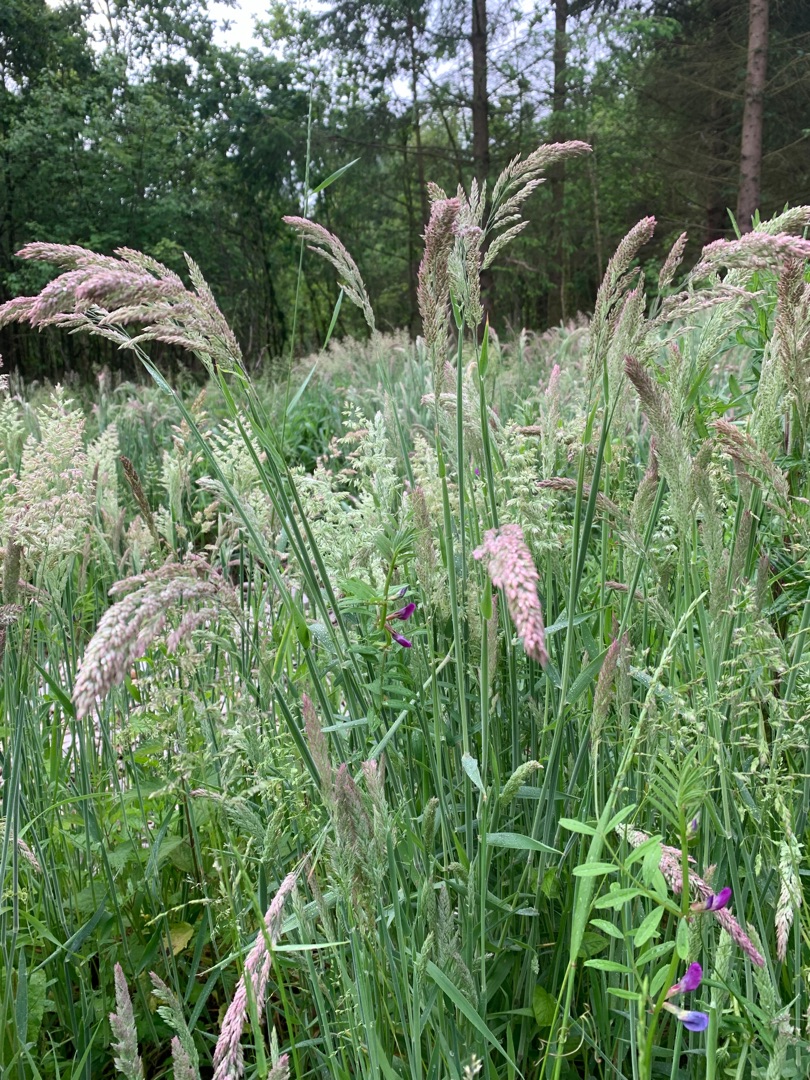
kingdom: Plantae
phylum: Tracheophyta
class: Liliopsida
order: Poales
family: Poaceae
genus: Holcus
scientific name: Holcus lanatus
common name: Fløjlsgræs
